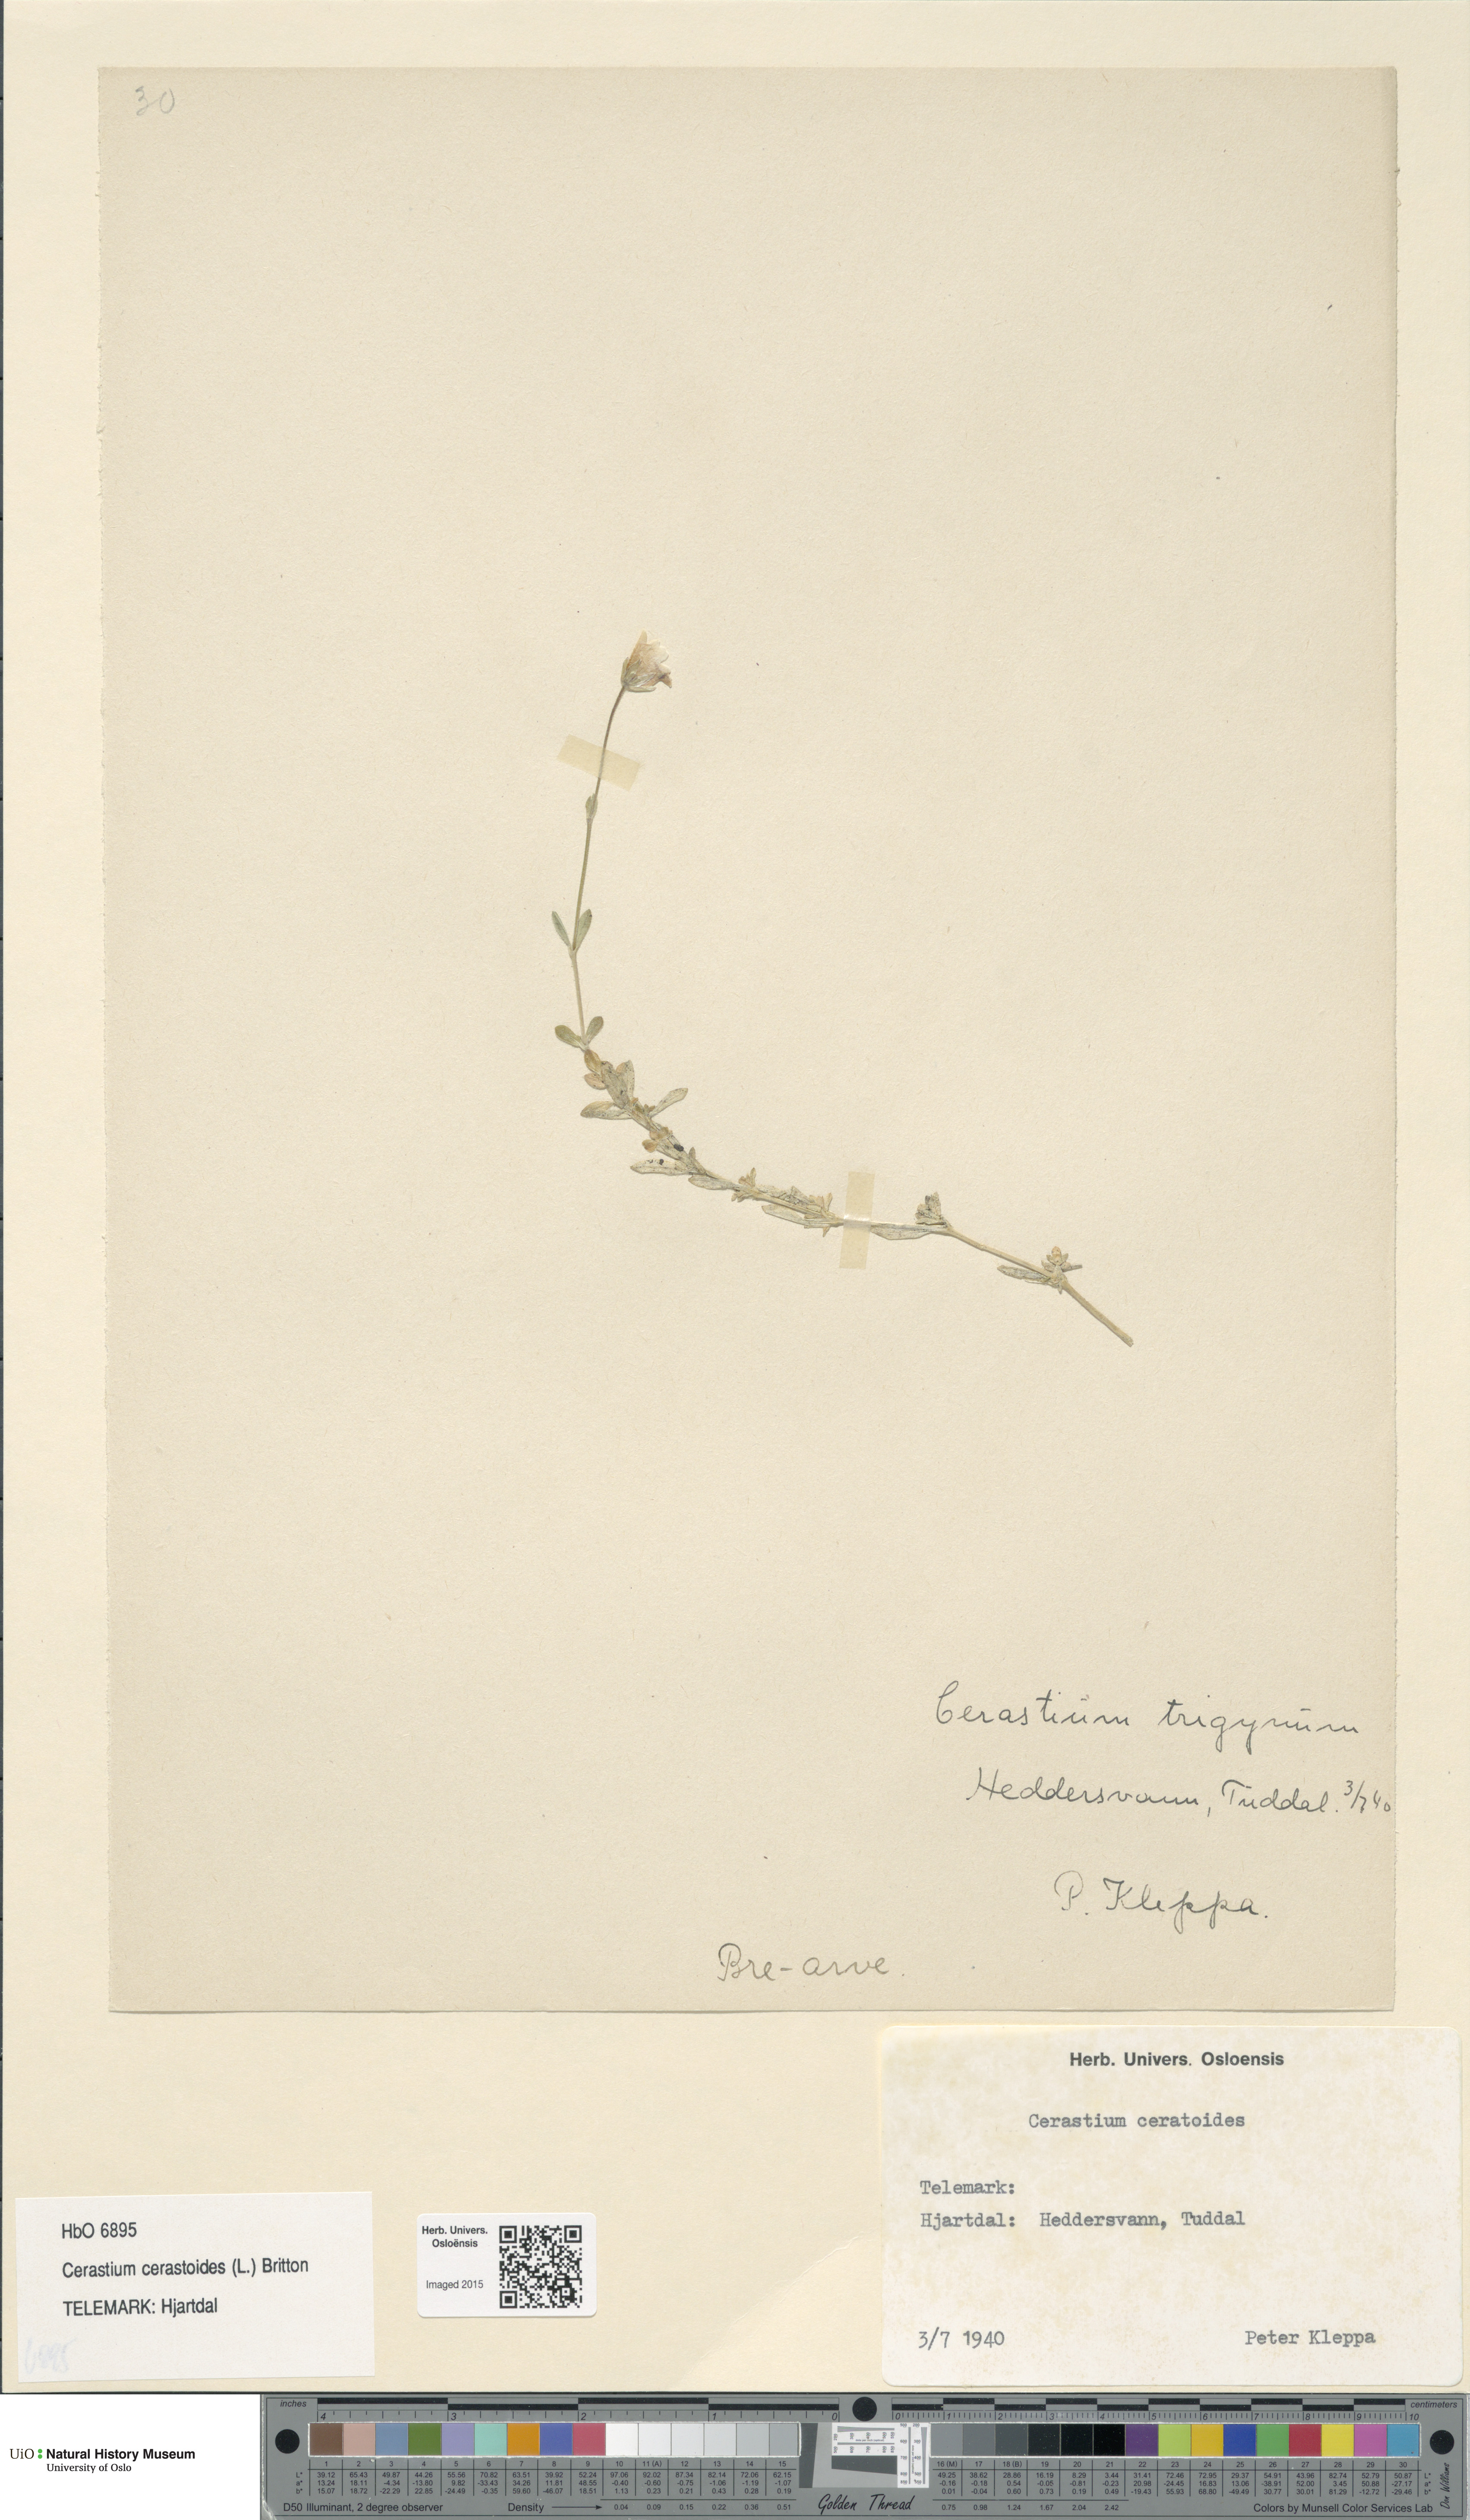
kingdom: Plantae
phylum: Tracheophyta
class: Magnoliopsida
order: Caryophyllales
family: Caryophyllaceae
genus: Dichodon
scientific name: Dichodon cerastoides
